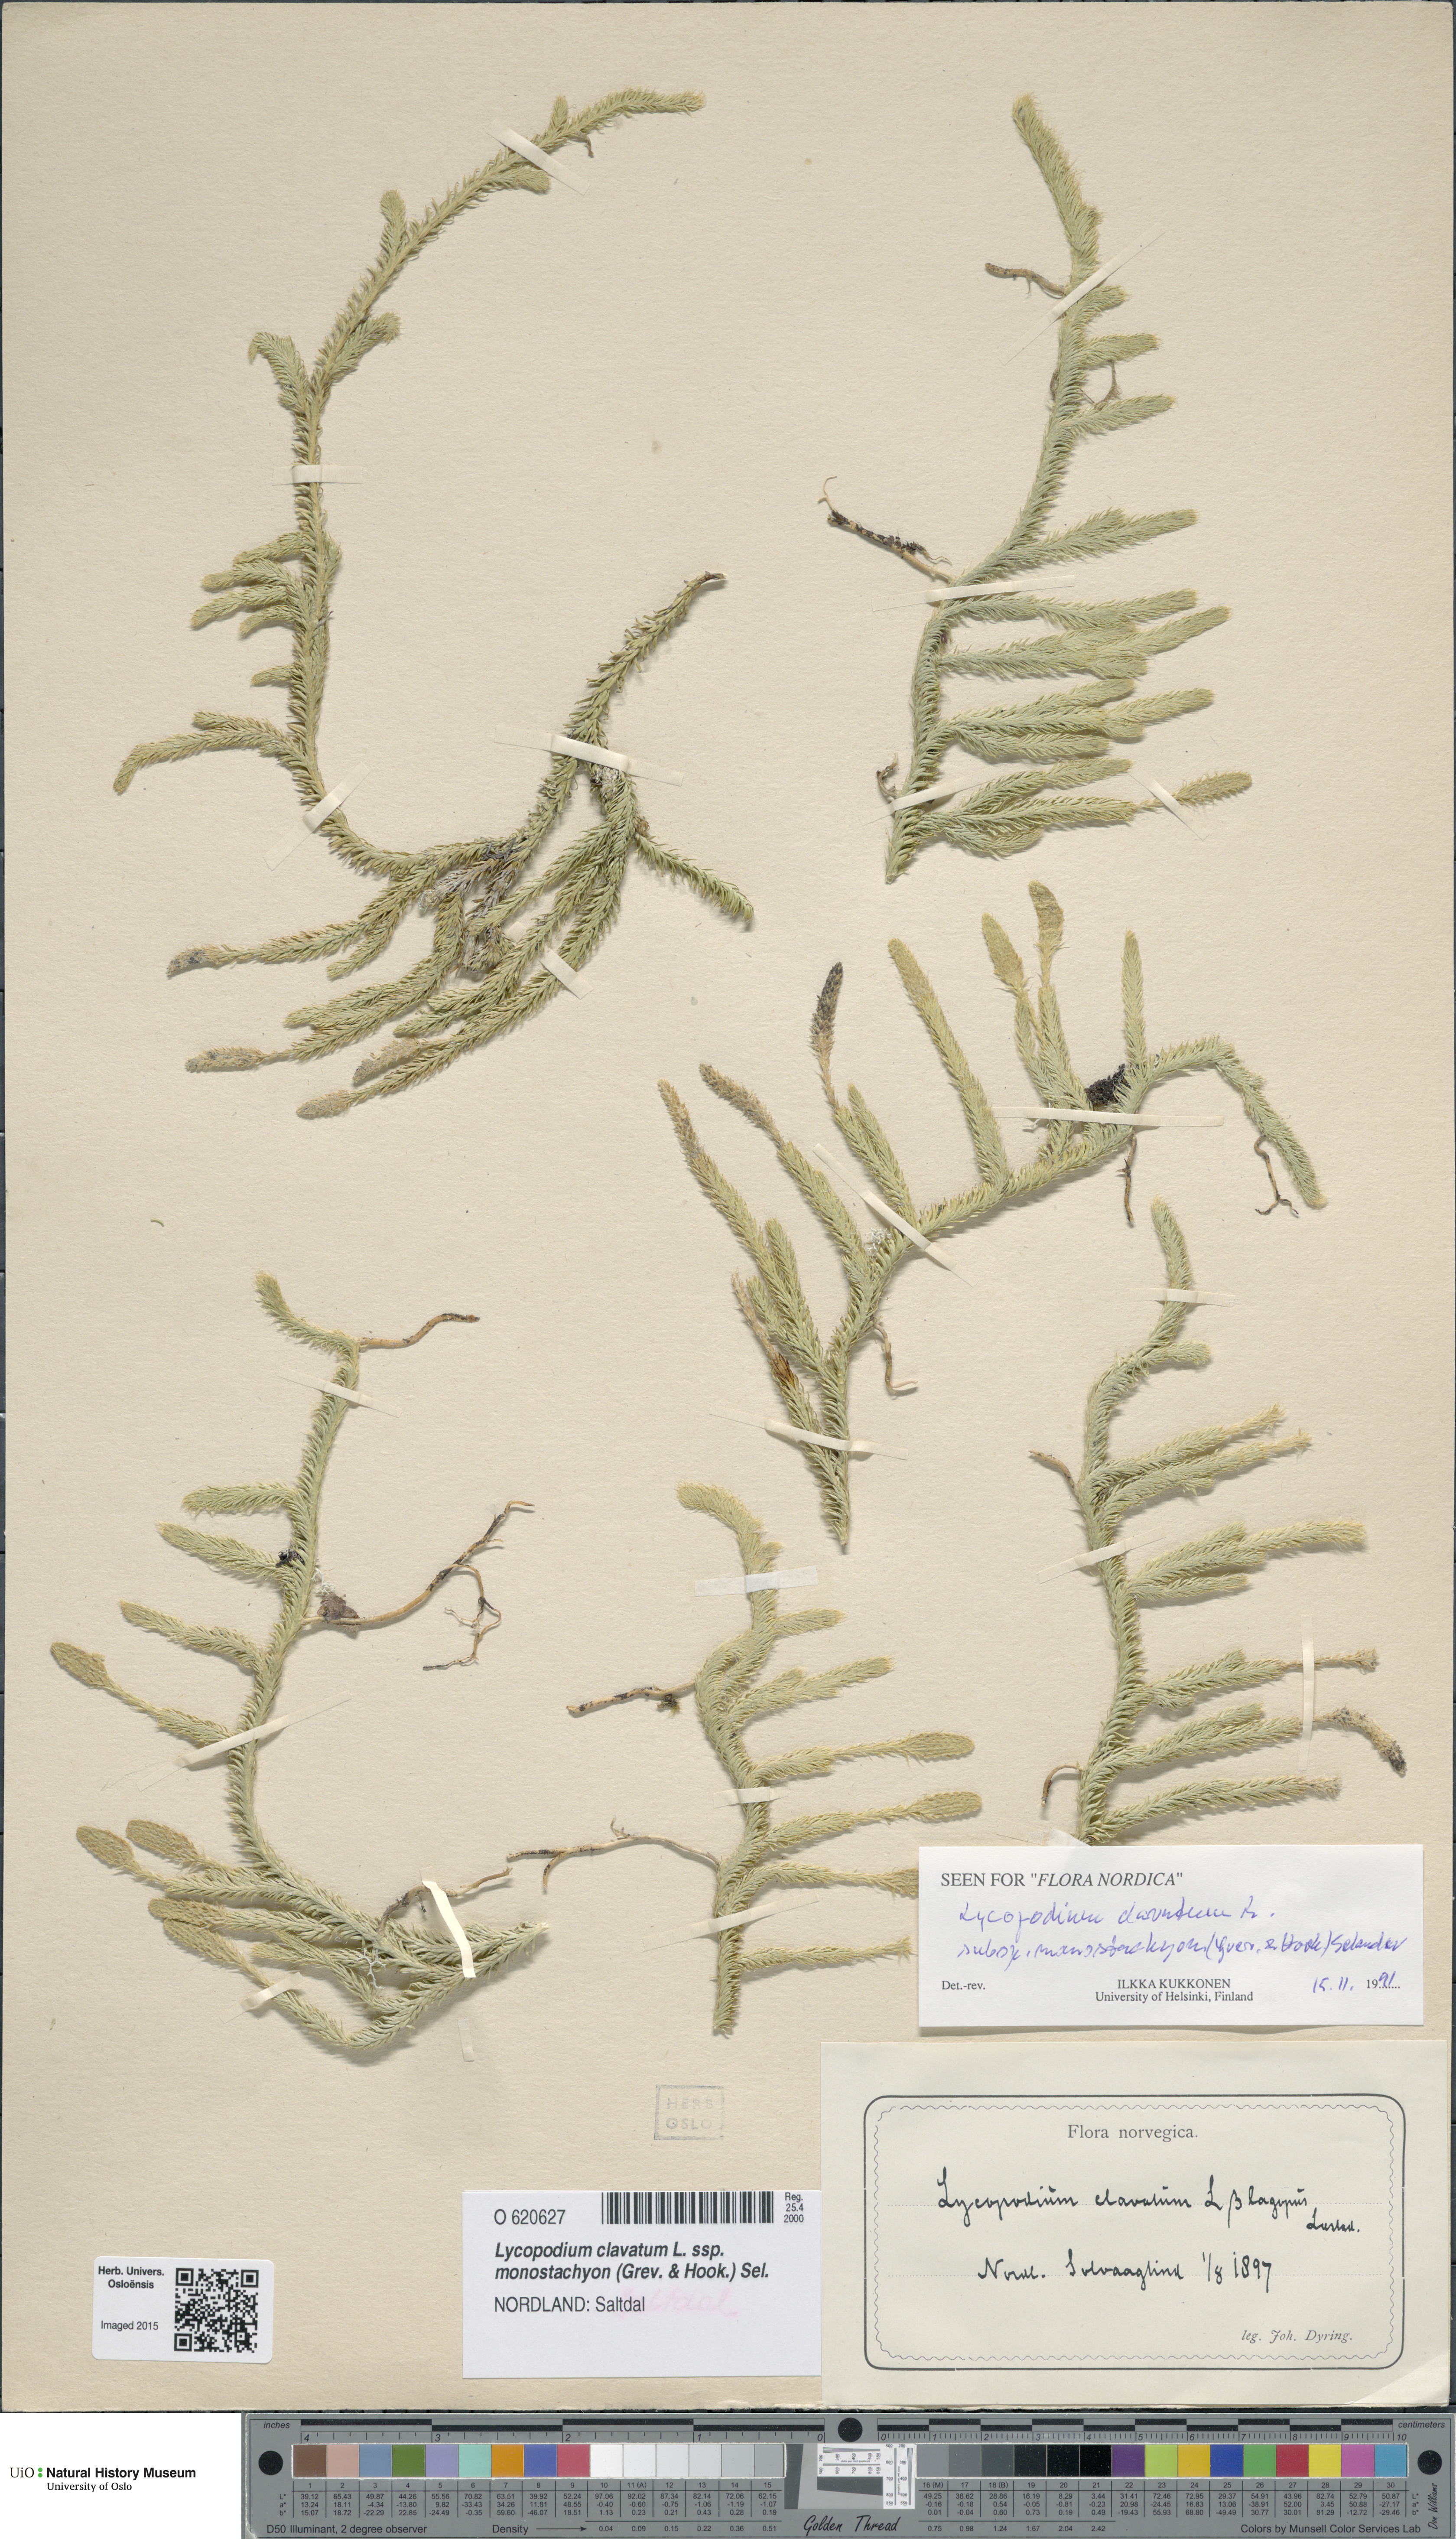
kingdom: Plantae
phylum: Tracheophyta
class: Lycopodiopsida
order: Lycopodiales
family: Lycopodiaceae
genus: Lycopodium
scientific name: Lycopodium lagopus
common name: One-cone clubmoss
